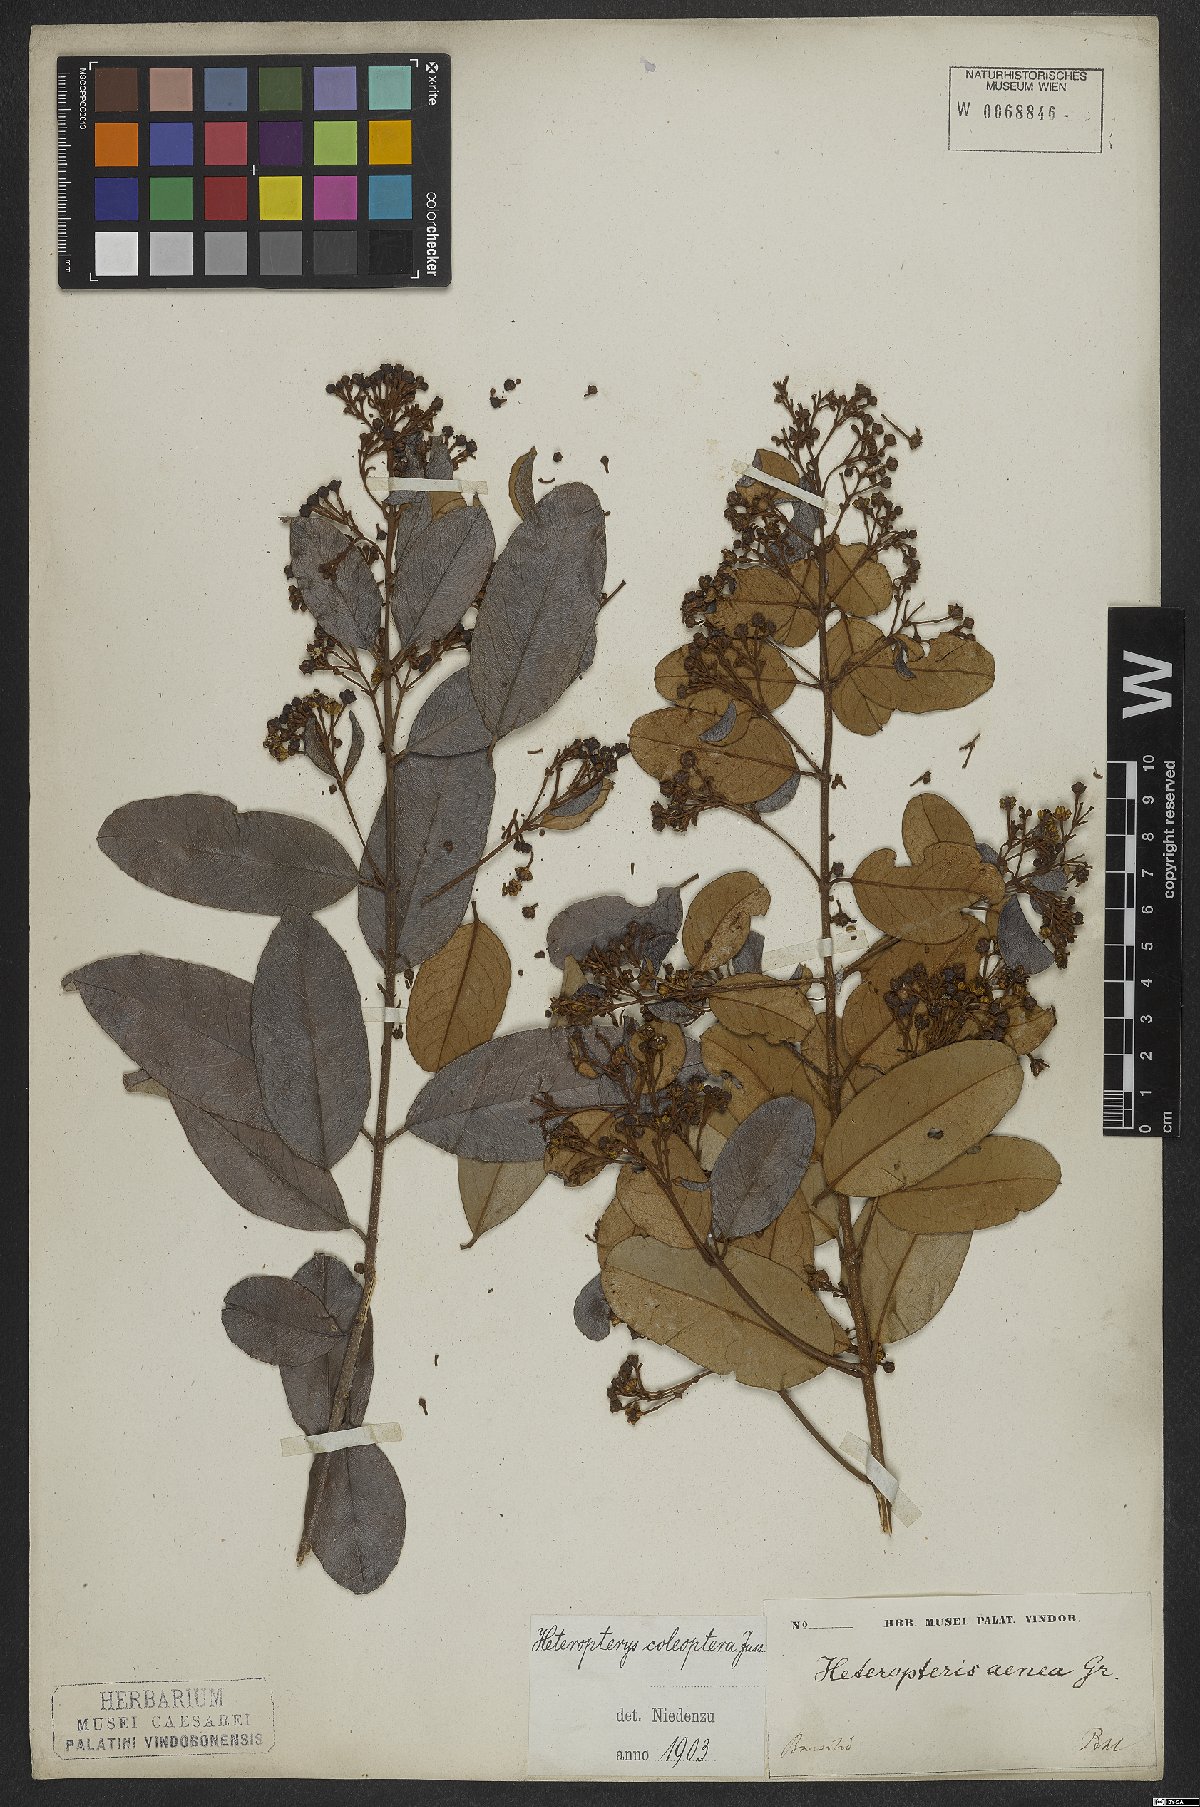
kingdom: Plantae
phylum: Tracheophyta
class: Magnoliopsida
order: Malpighiales
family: Malpighiaceae
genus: Heteropterys
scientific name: Heteropterys coleoptera
